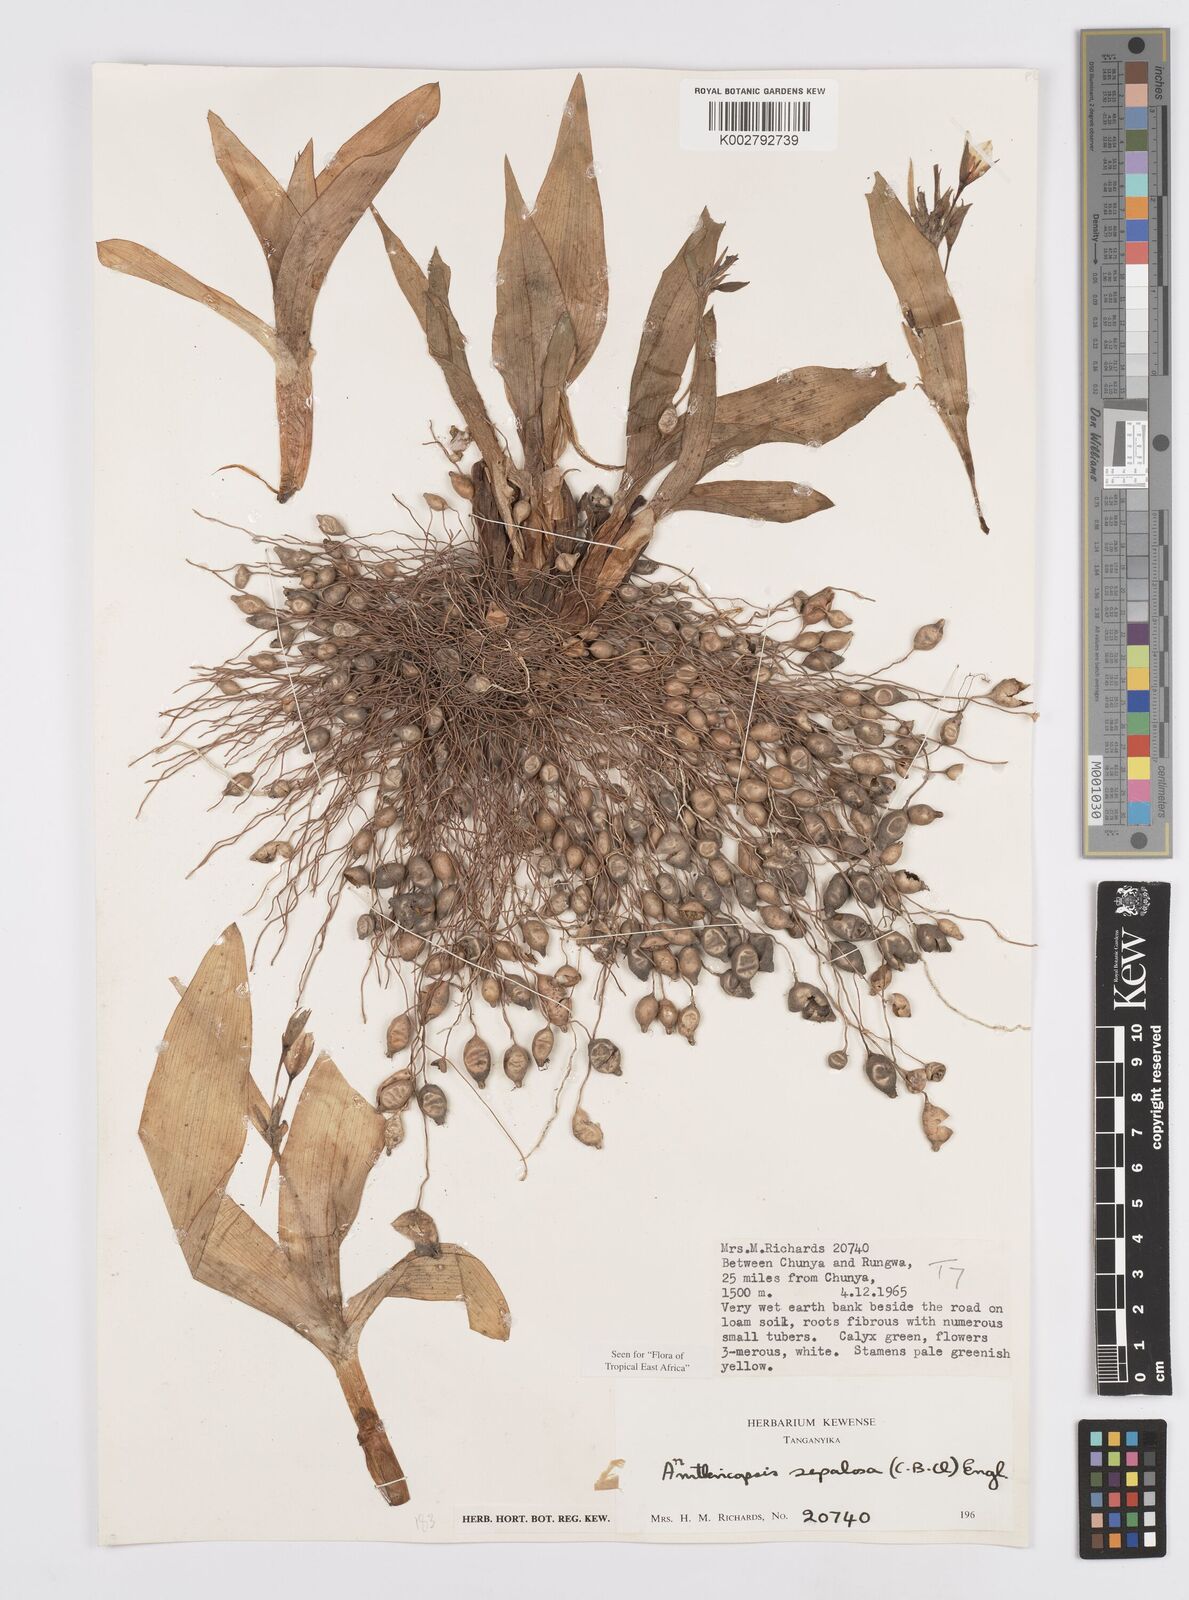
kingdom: Plantae
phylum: Tracheophyta
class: Liliopsida
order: Commelinales
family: Commelinaceae
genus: Anthericopsis
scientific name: Anthericopsis sepalosa
